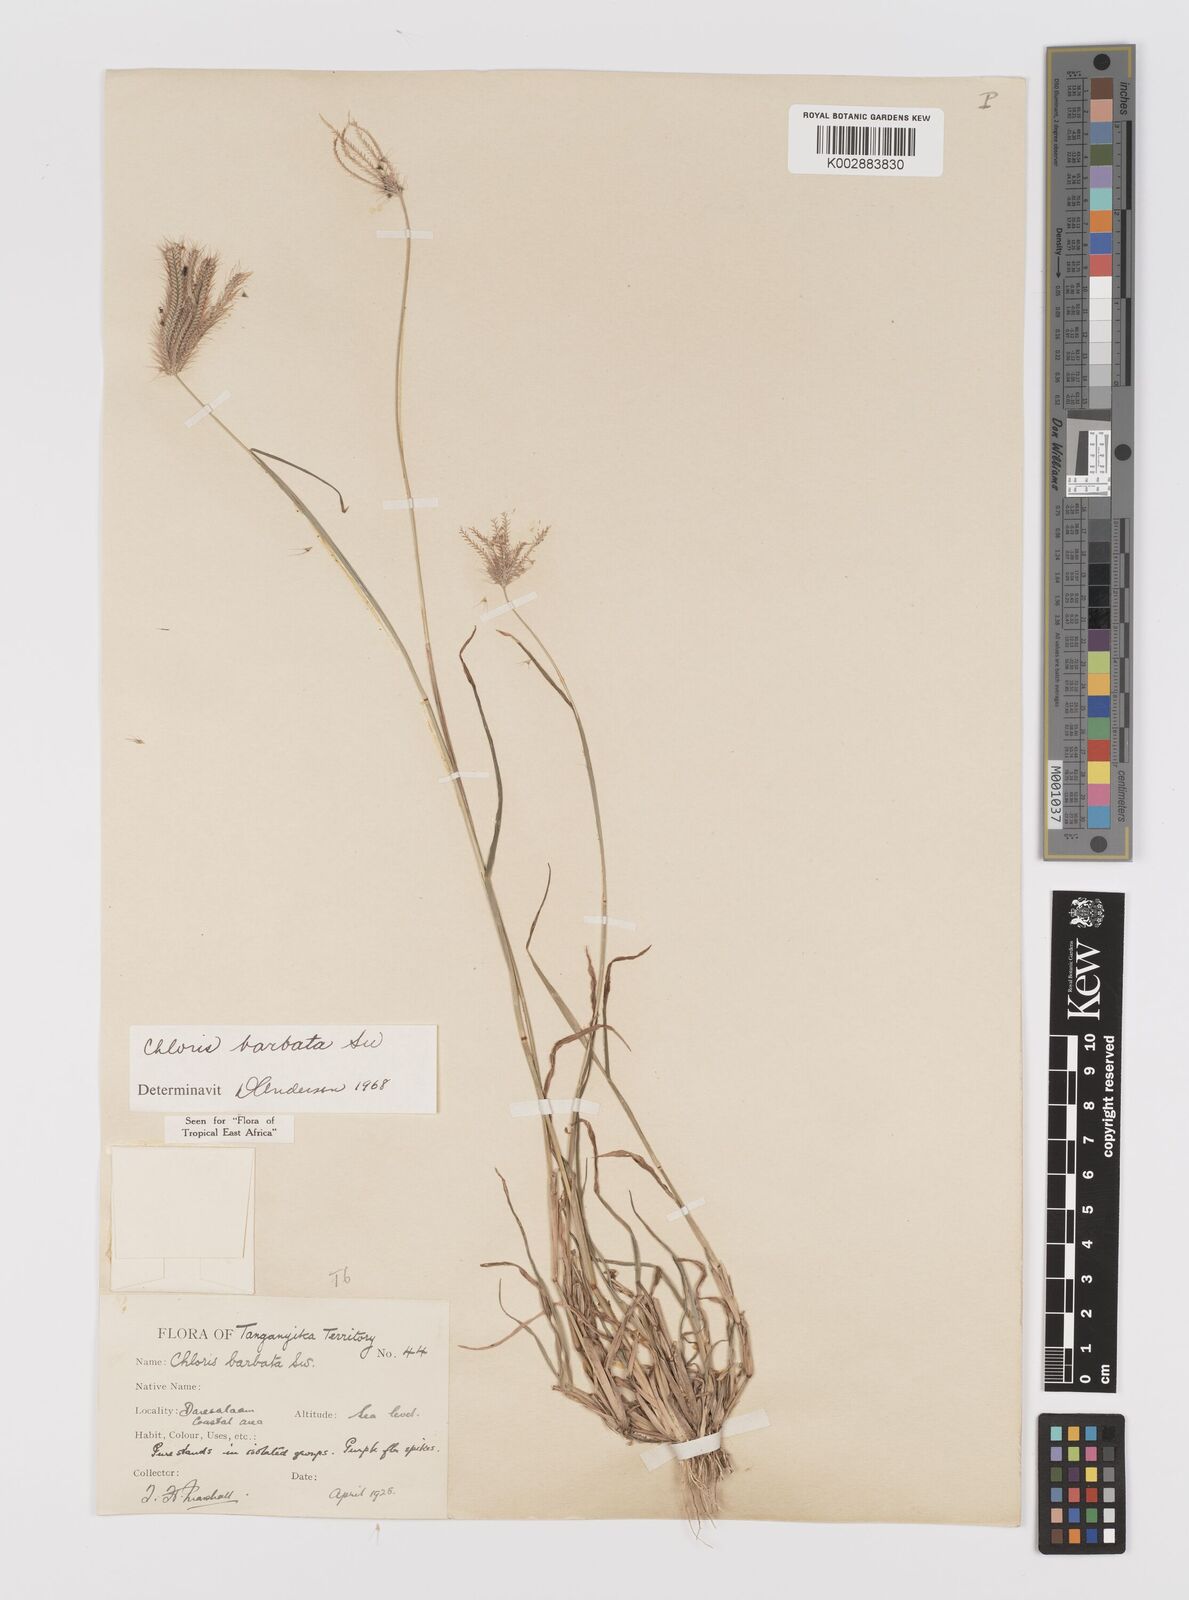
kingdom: Plantae
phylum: Tracheophyta
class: Liliopsida
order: Poales
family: Poaceae
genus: Chloris
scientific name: Chloris barbata
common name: Swollen fingergrass
